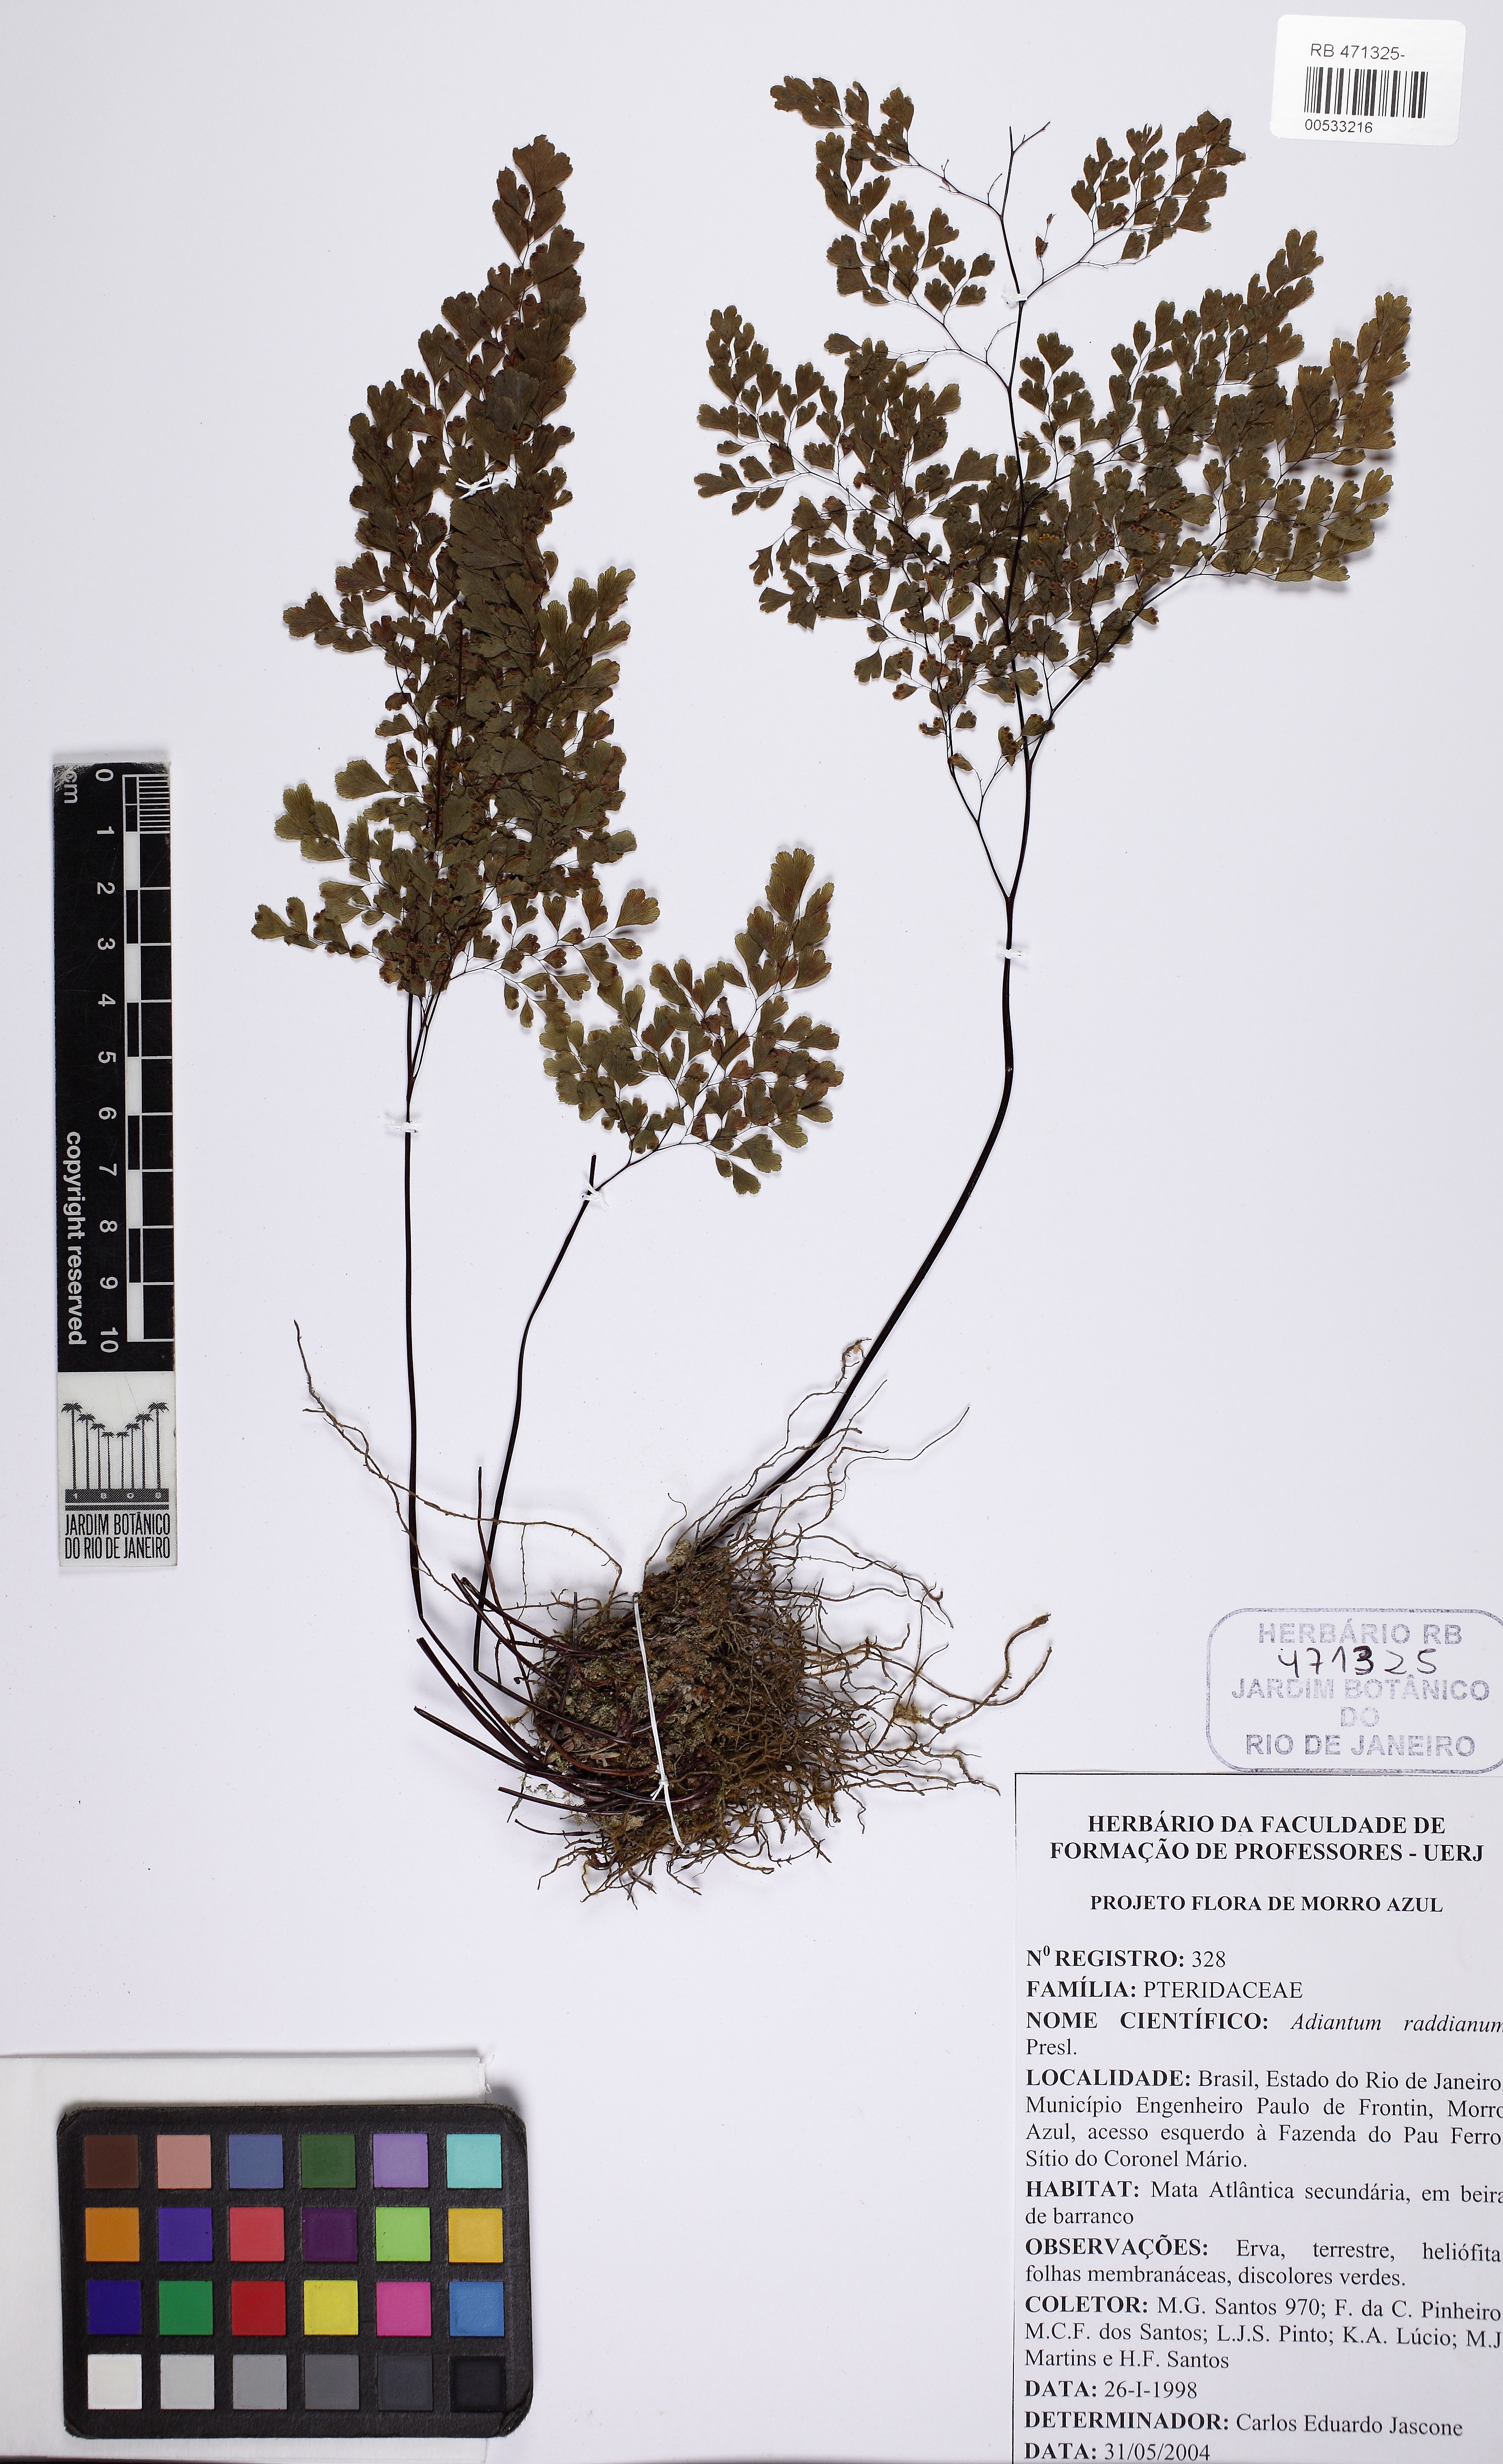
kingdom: Plantae
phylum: Tracheophyta
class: Polypodiopsida
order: Polypodiales
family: Pteridaceae
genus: Adiantum
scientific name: Adiantum raddianum
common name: Delta maidenhair fern
